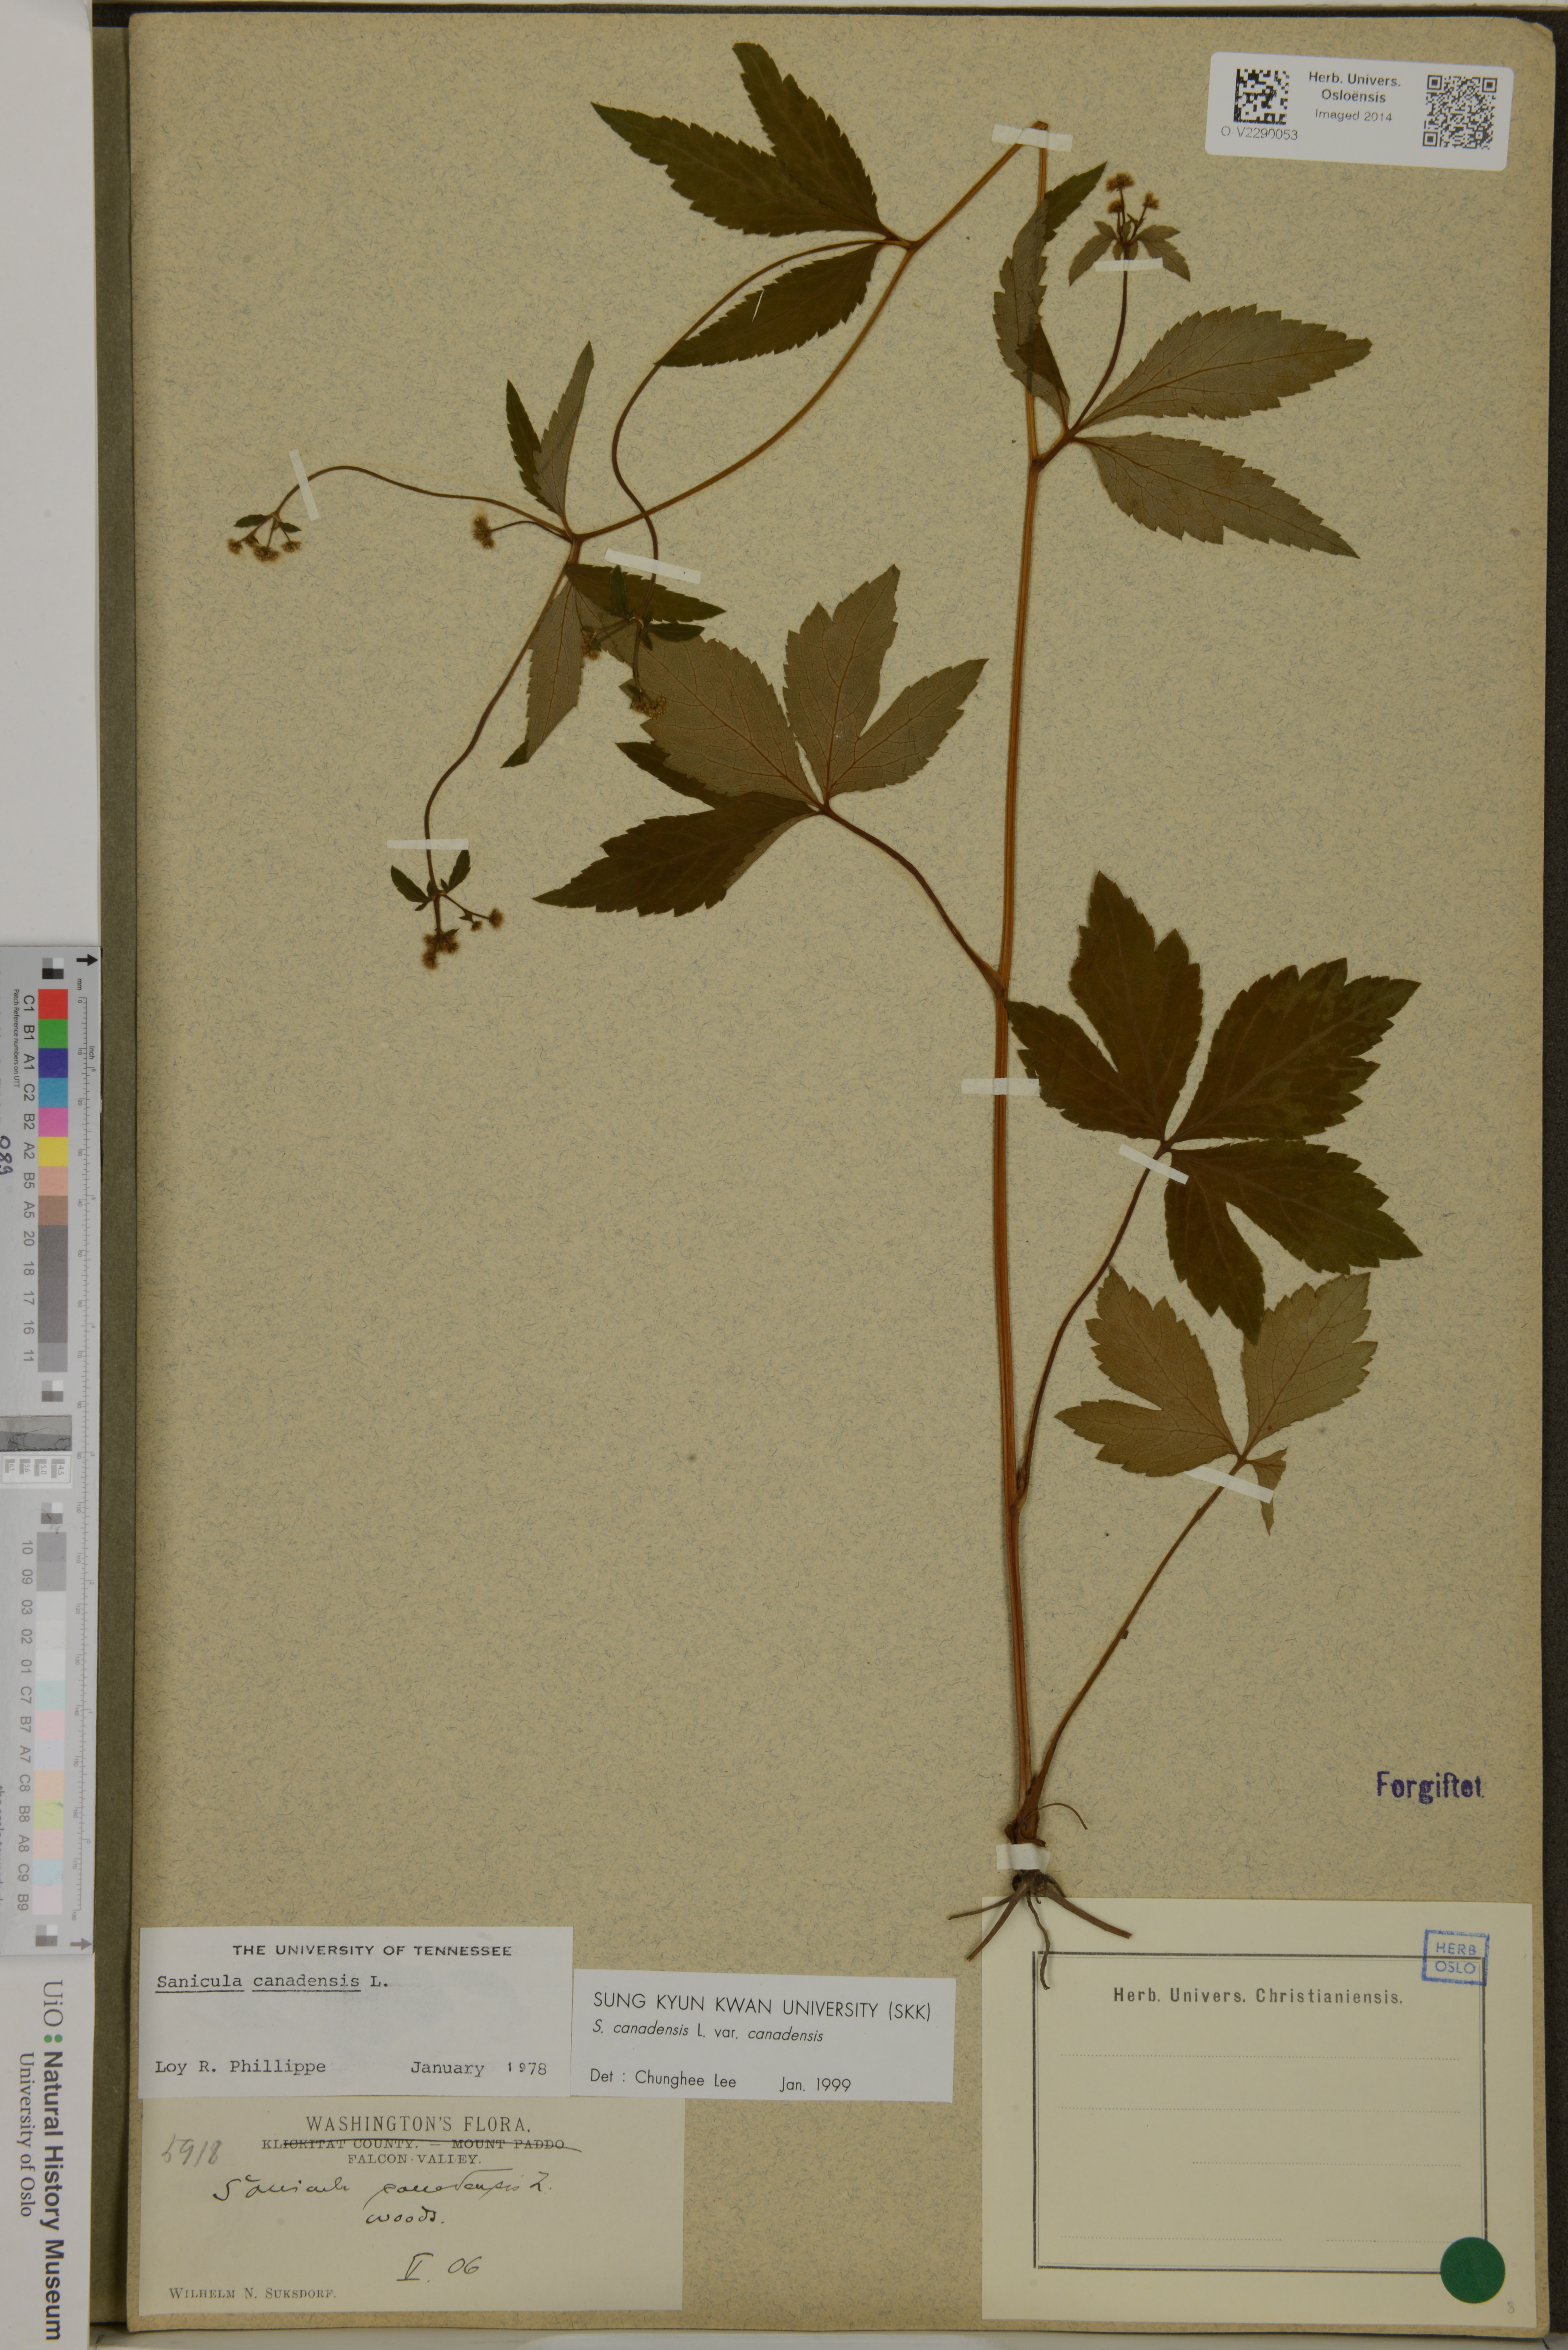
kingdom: Plantae
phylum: Tracheophyta
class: Magnoliopsida
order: Apiales
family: Apiaceae
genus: Sanicula
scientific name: Sanicula canadensis
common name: Canada sanicle
